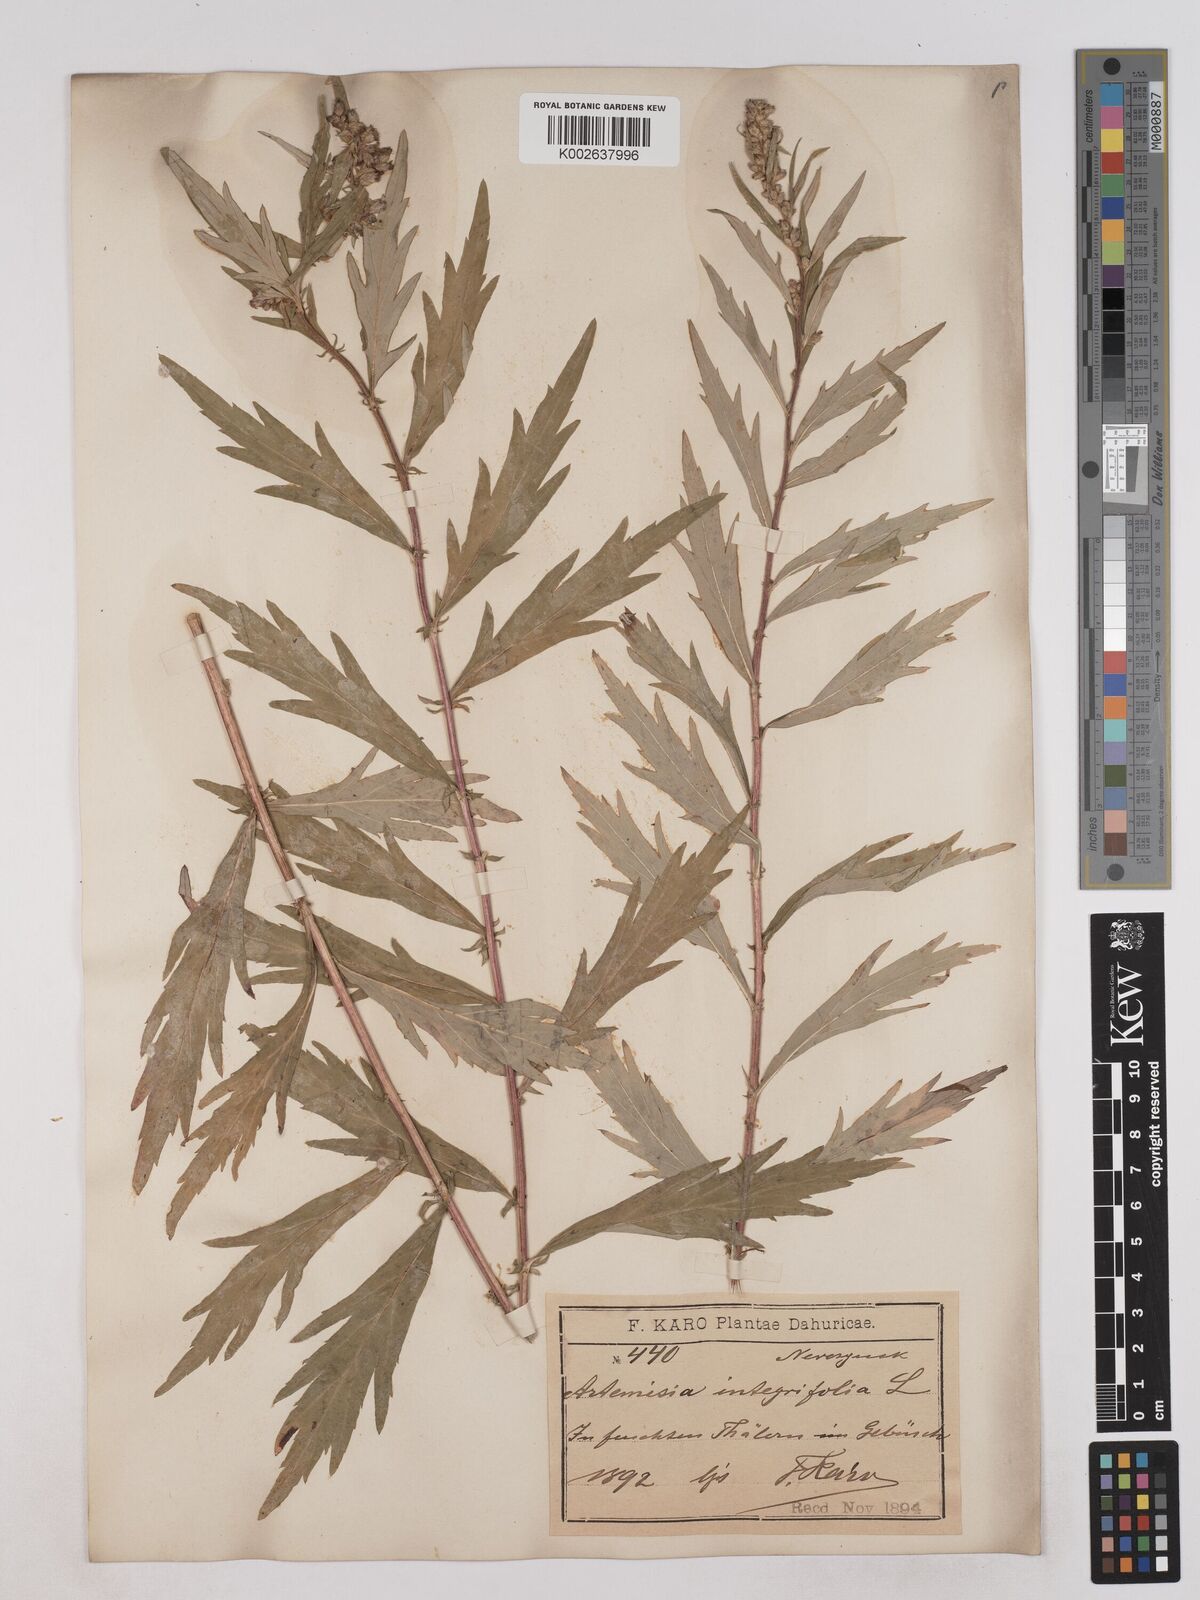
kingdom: Plantae
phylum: Tracheophyta
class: Magnoliopsida
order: Asterales
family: Asteraceae
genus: Artemisia
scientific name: Artemisia integrifolia
